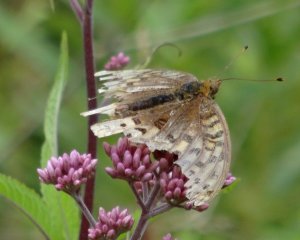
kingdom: Animalia
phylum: Arthropoda
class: Insecta
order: Lepidoptera
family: Nymphalidae
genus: Speyeria
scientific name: Speyeria cybele
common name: Great Spangled Fritillary
